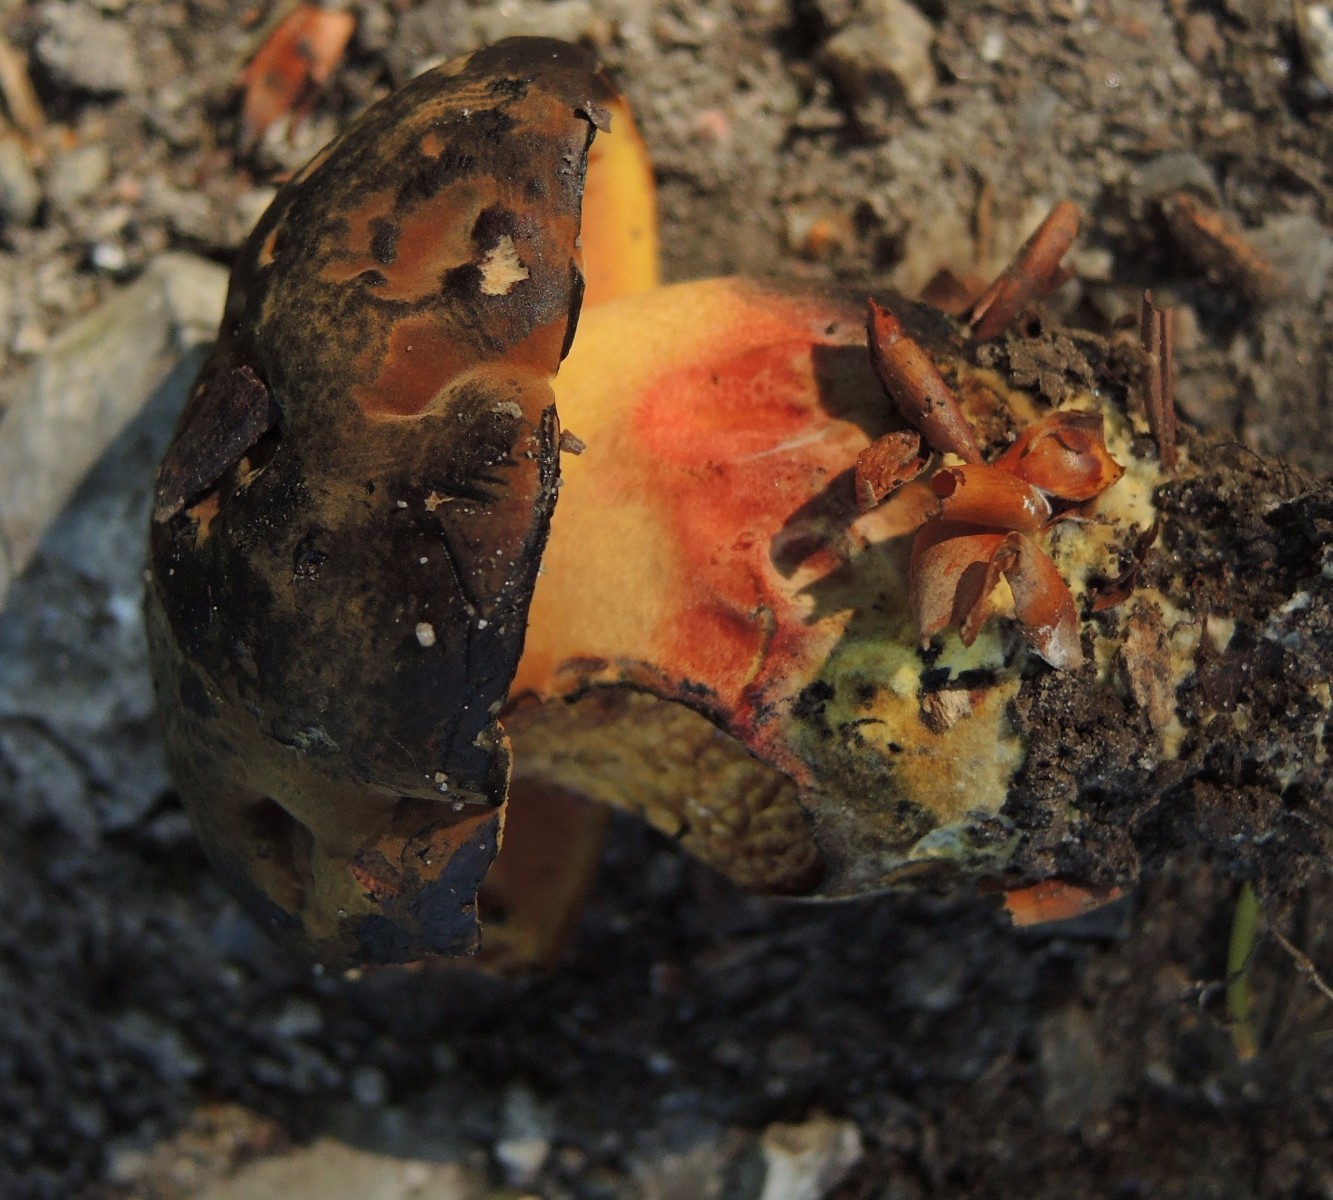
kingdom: Fungi
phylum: Basidiomycota
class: Agaricomycetes
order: Boletales
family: Boletaceae
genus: Neoboletus
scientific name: Neoboletus xanthopus
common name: finprikket indigorørhat
